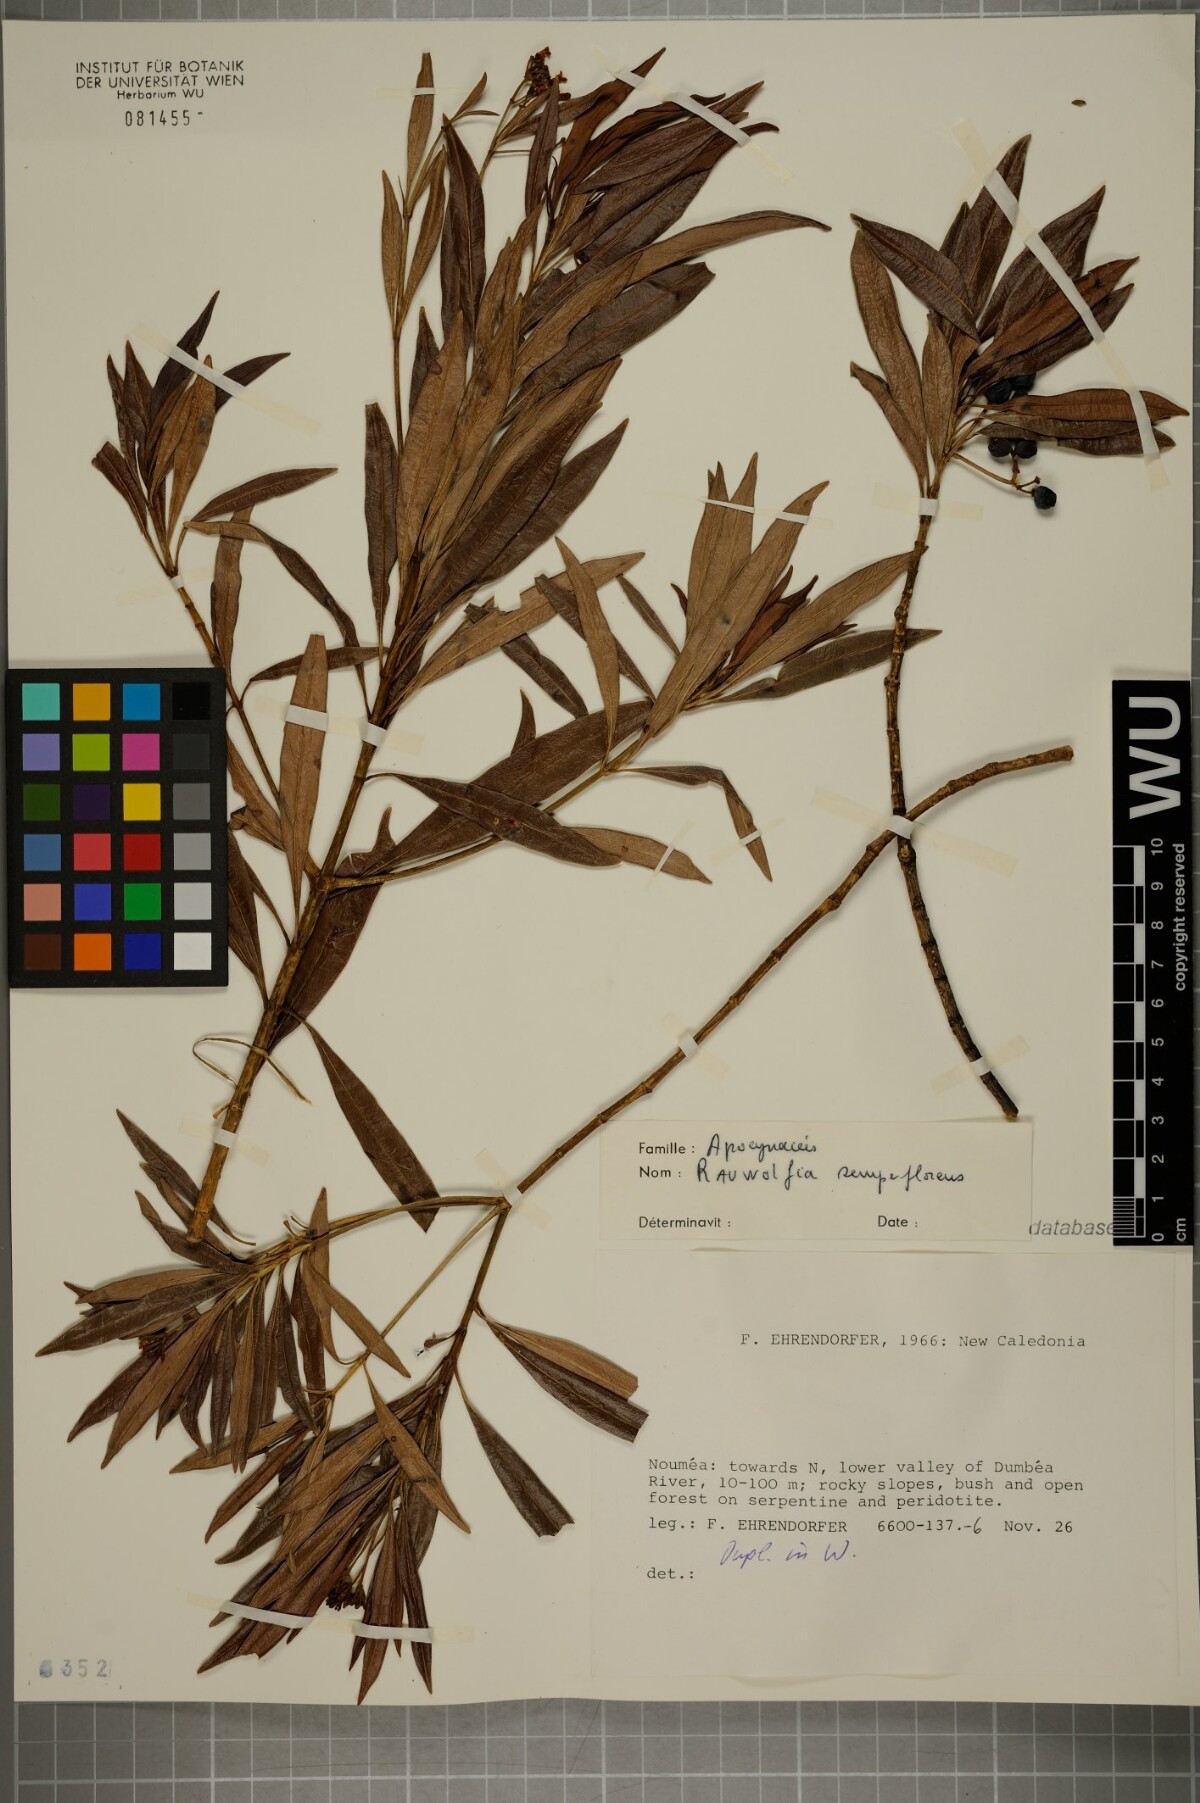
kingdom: Plantae
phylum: Tracheophyta
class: Magnoliopsida
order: Gentianales
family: Apocynaceae
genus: Rauvolfia
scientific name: Rauvolfia semperflorens
